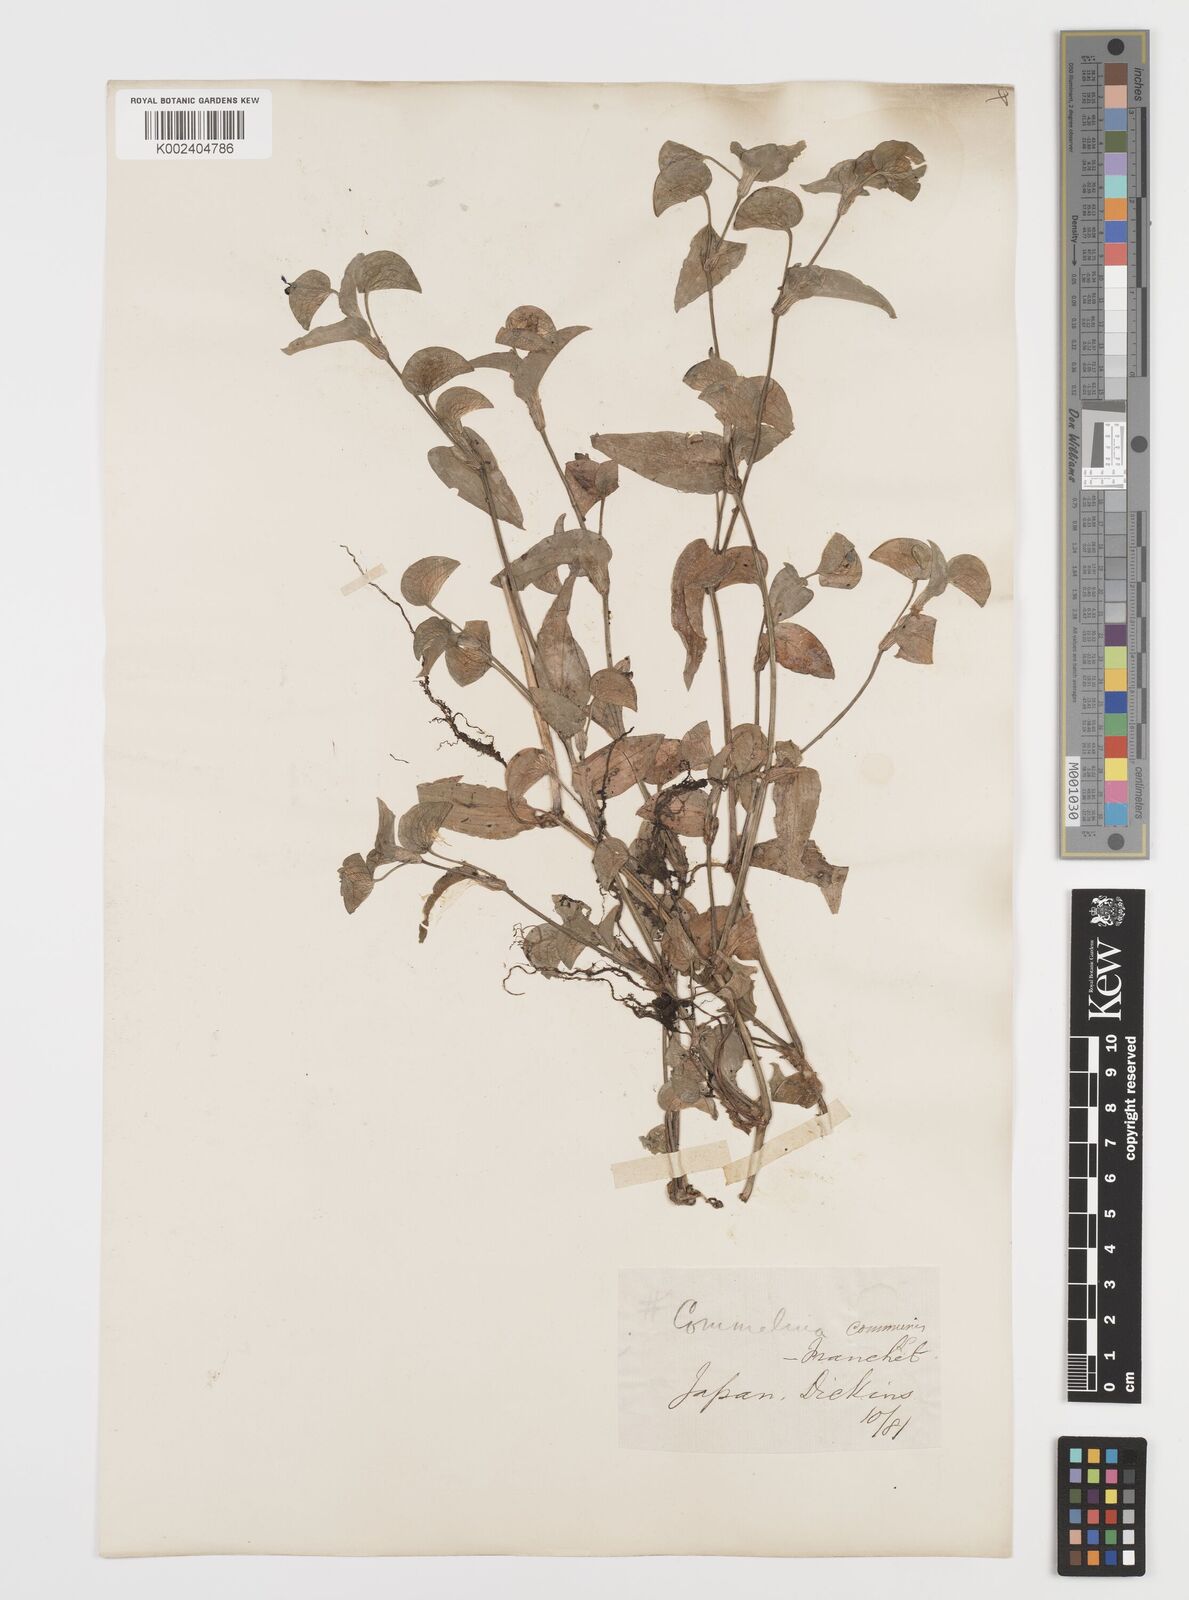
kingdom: Plantae
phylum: Tracheophyta
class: Liliopsida
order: Commelinales
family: Commelinaceae
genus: Commelina
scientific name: Commelina communis
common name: Asiatic dayflower
